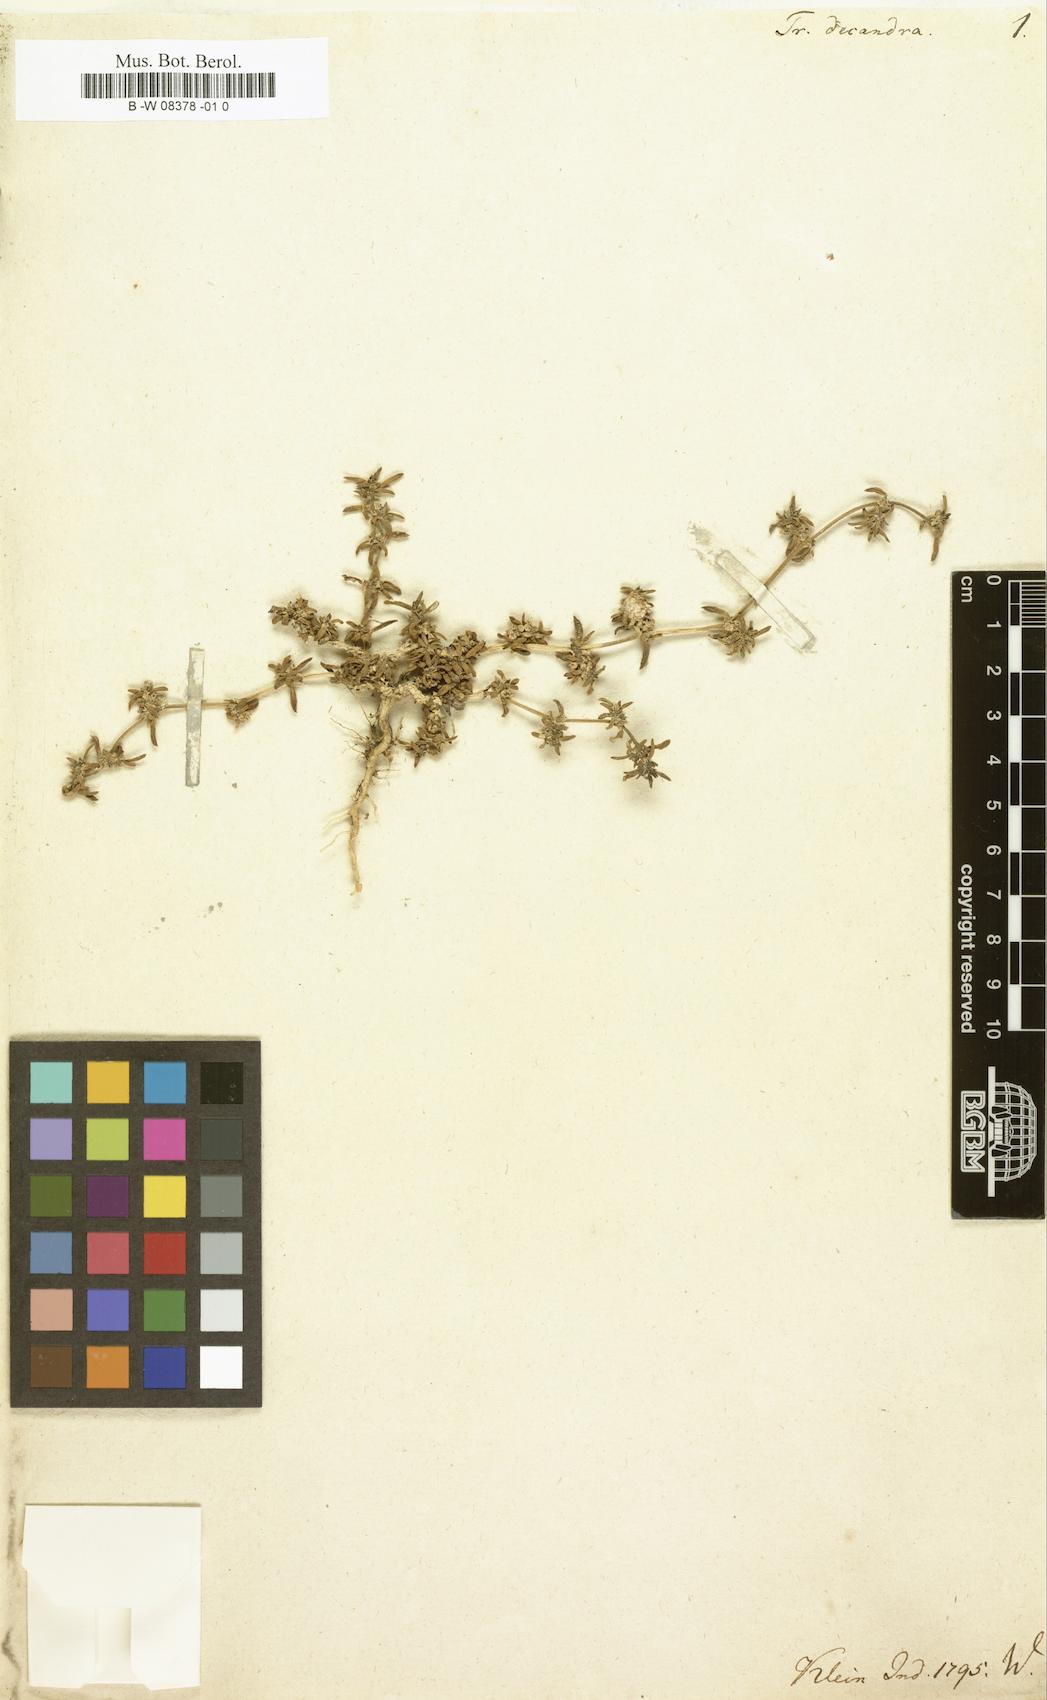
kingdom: Plantae
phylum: Tracheophyta
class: Magnoliopsida
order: Caryophyllales
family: Aizoaceae
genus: Zaleya
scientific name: Zaleya decandra
